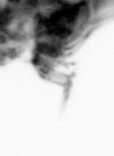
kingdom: Animalia
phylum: Arthropoda
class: Copepoda
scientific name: Copepoda
